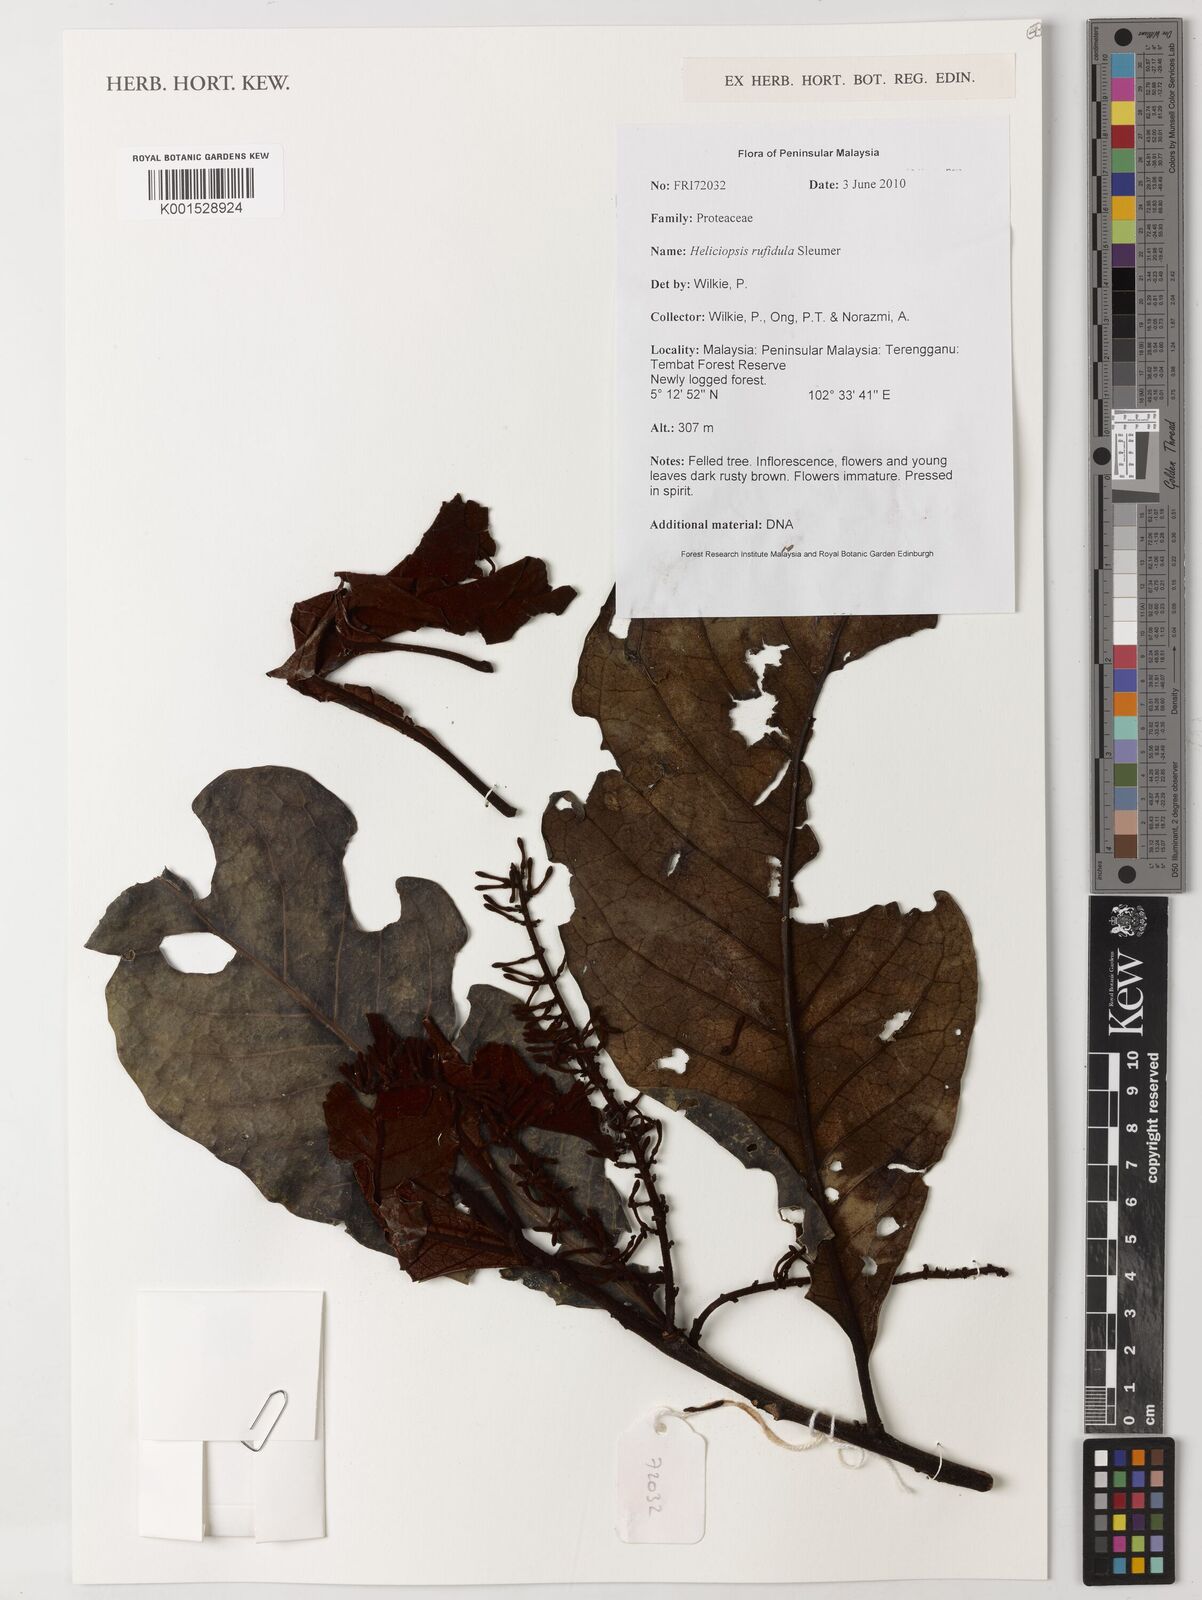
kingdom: Plantae
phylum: Tracheophyta
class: Magnoliopsida
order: Proteales
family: Proteaceae
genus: Heliciopsis
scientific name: Heliciopsis rufidula
